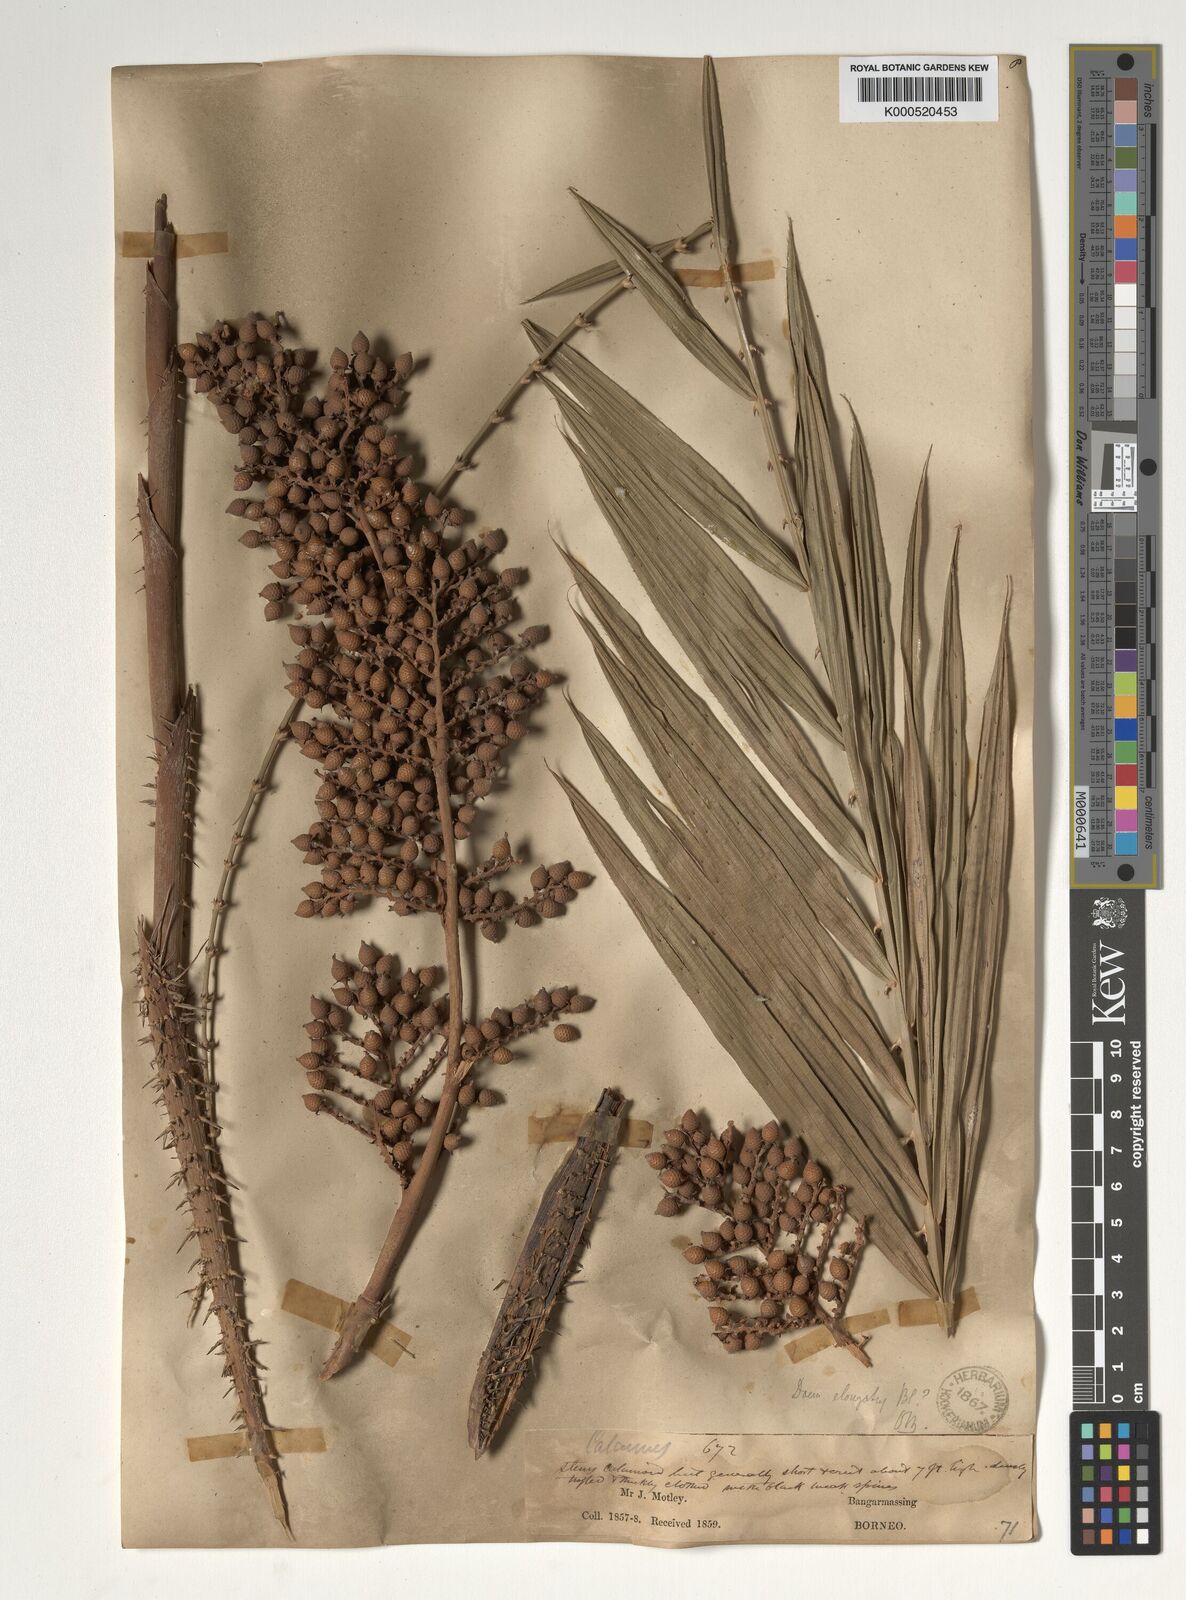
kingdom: Plantae
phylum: Tracheophyta
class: Liliopsida
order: Arecales
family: Arecaceae
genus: Calamus
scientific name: Calamus oblongus
